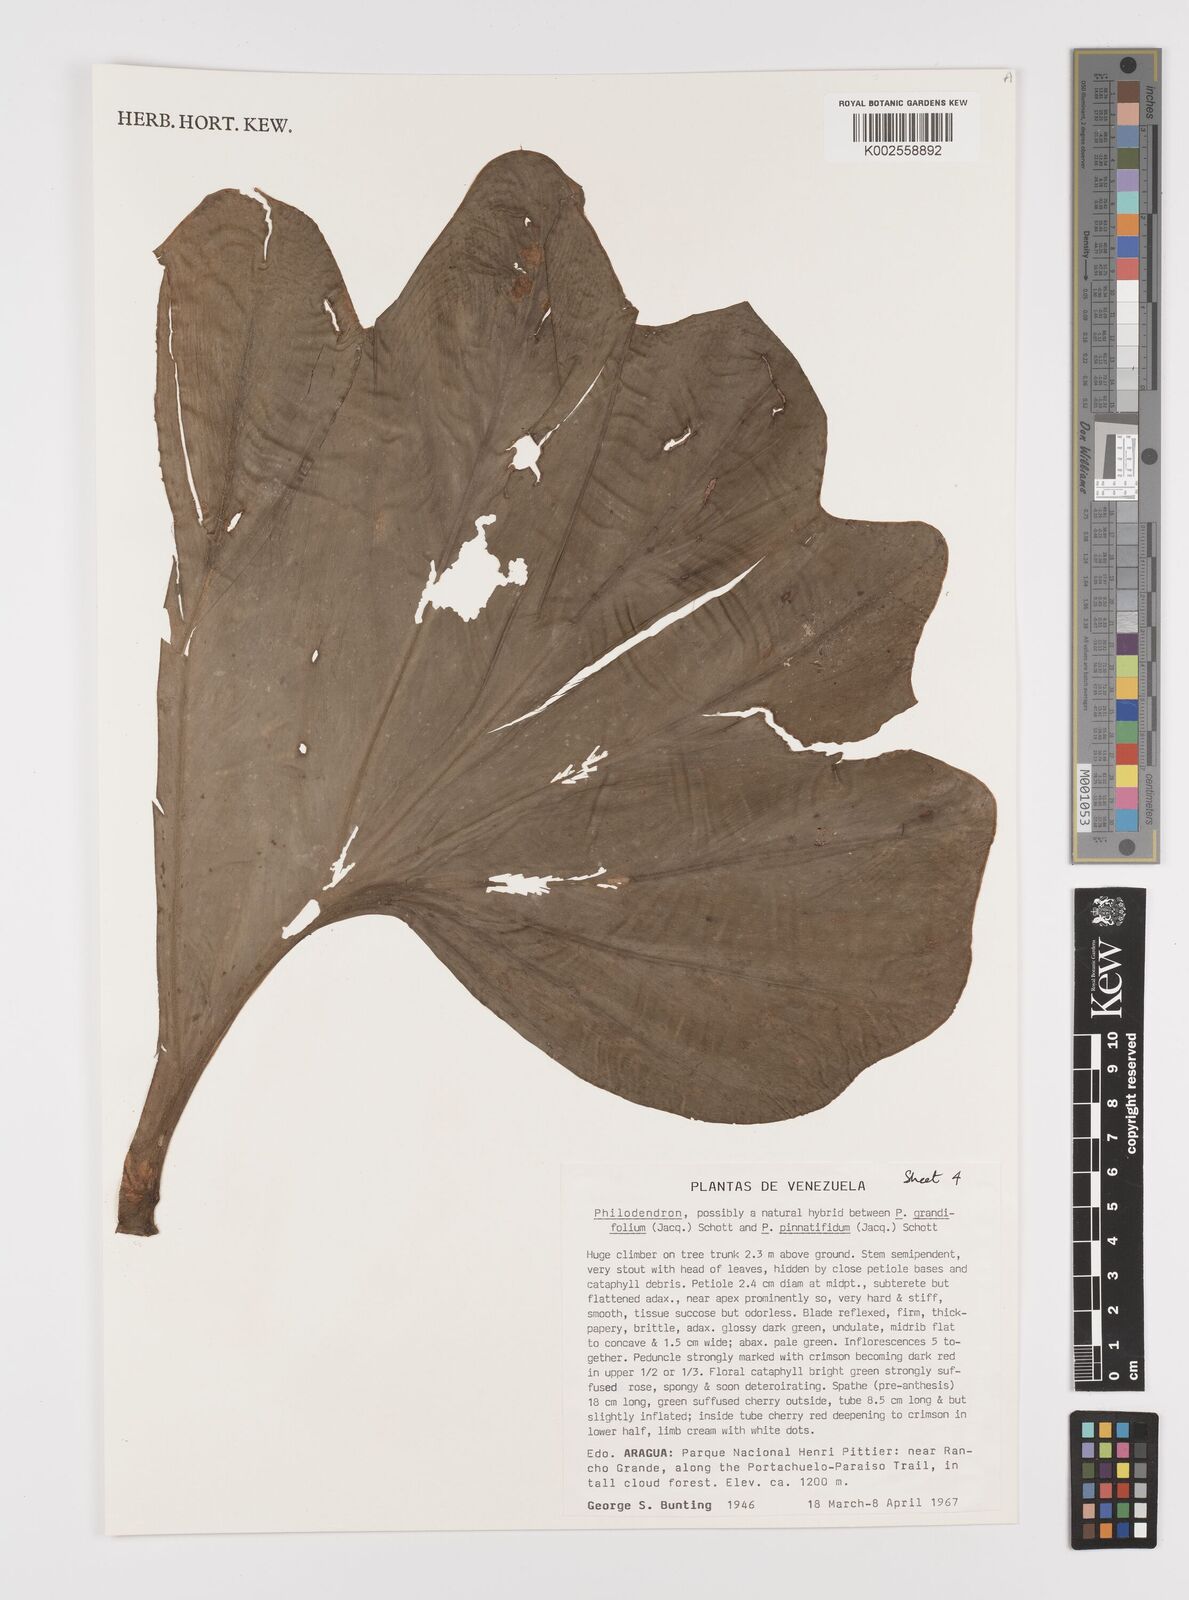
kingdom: Plantae
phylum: Tracheophyta
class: Liliopsida
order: Alismatales
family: Araceae
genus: Philodendron
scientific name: Philodendron grandifolium
